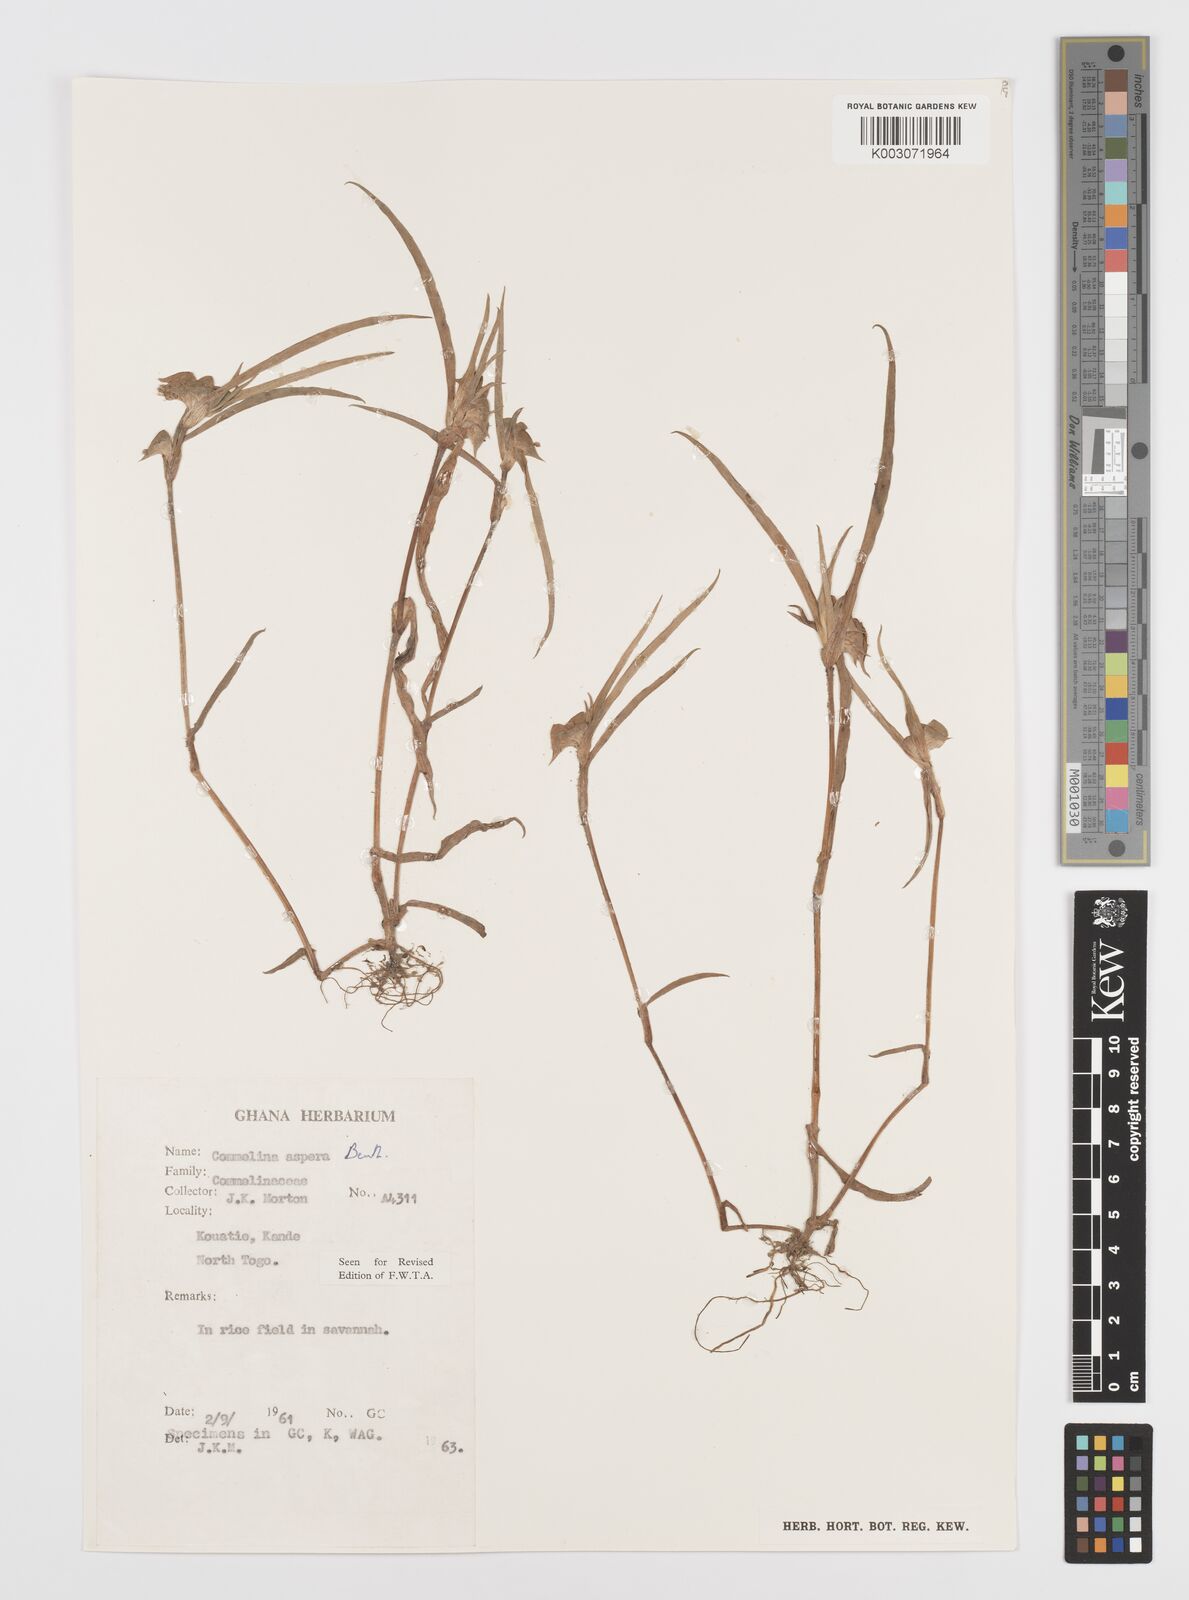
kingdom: Plantae
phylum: Tracheophyta
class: Liliopsida
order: Commelinales
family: Commelinaceae
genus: Commelina
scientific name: Commelina aspera
